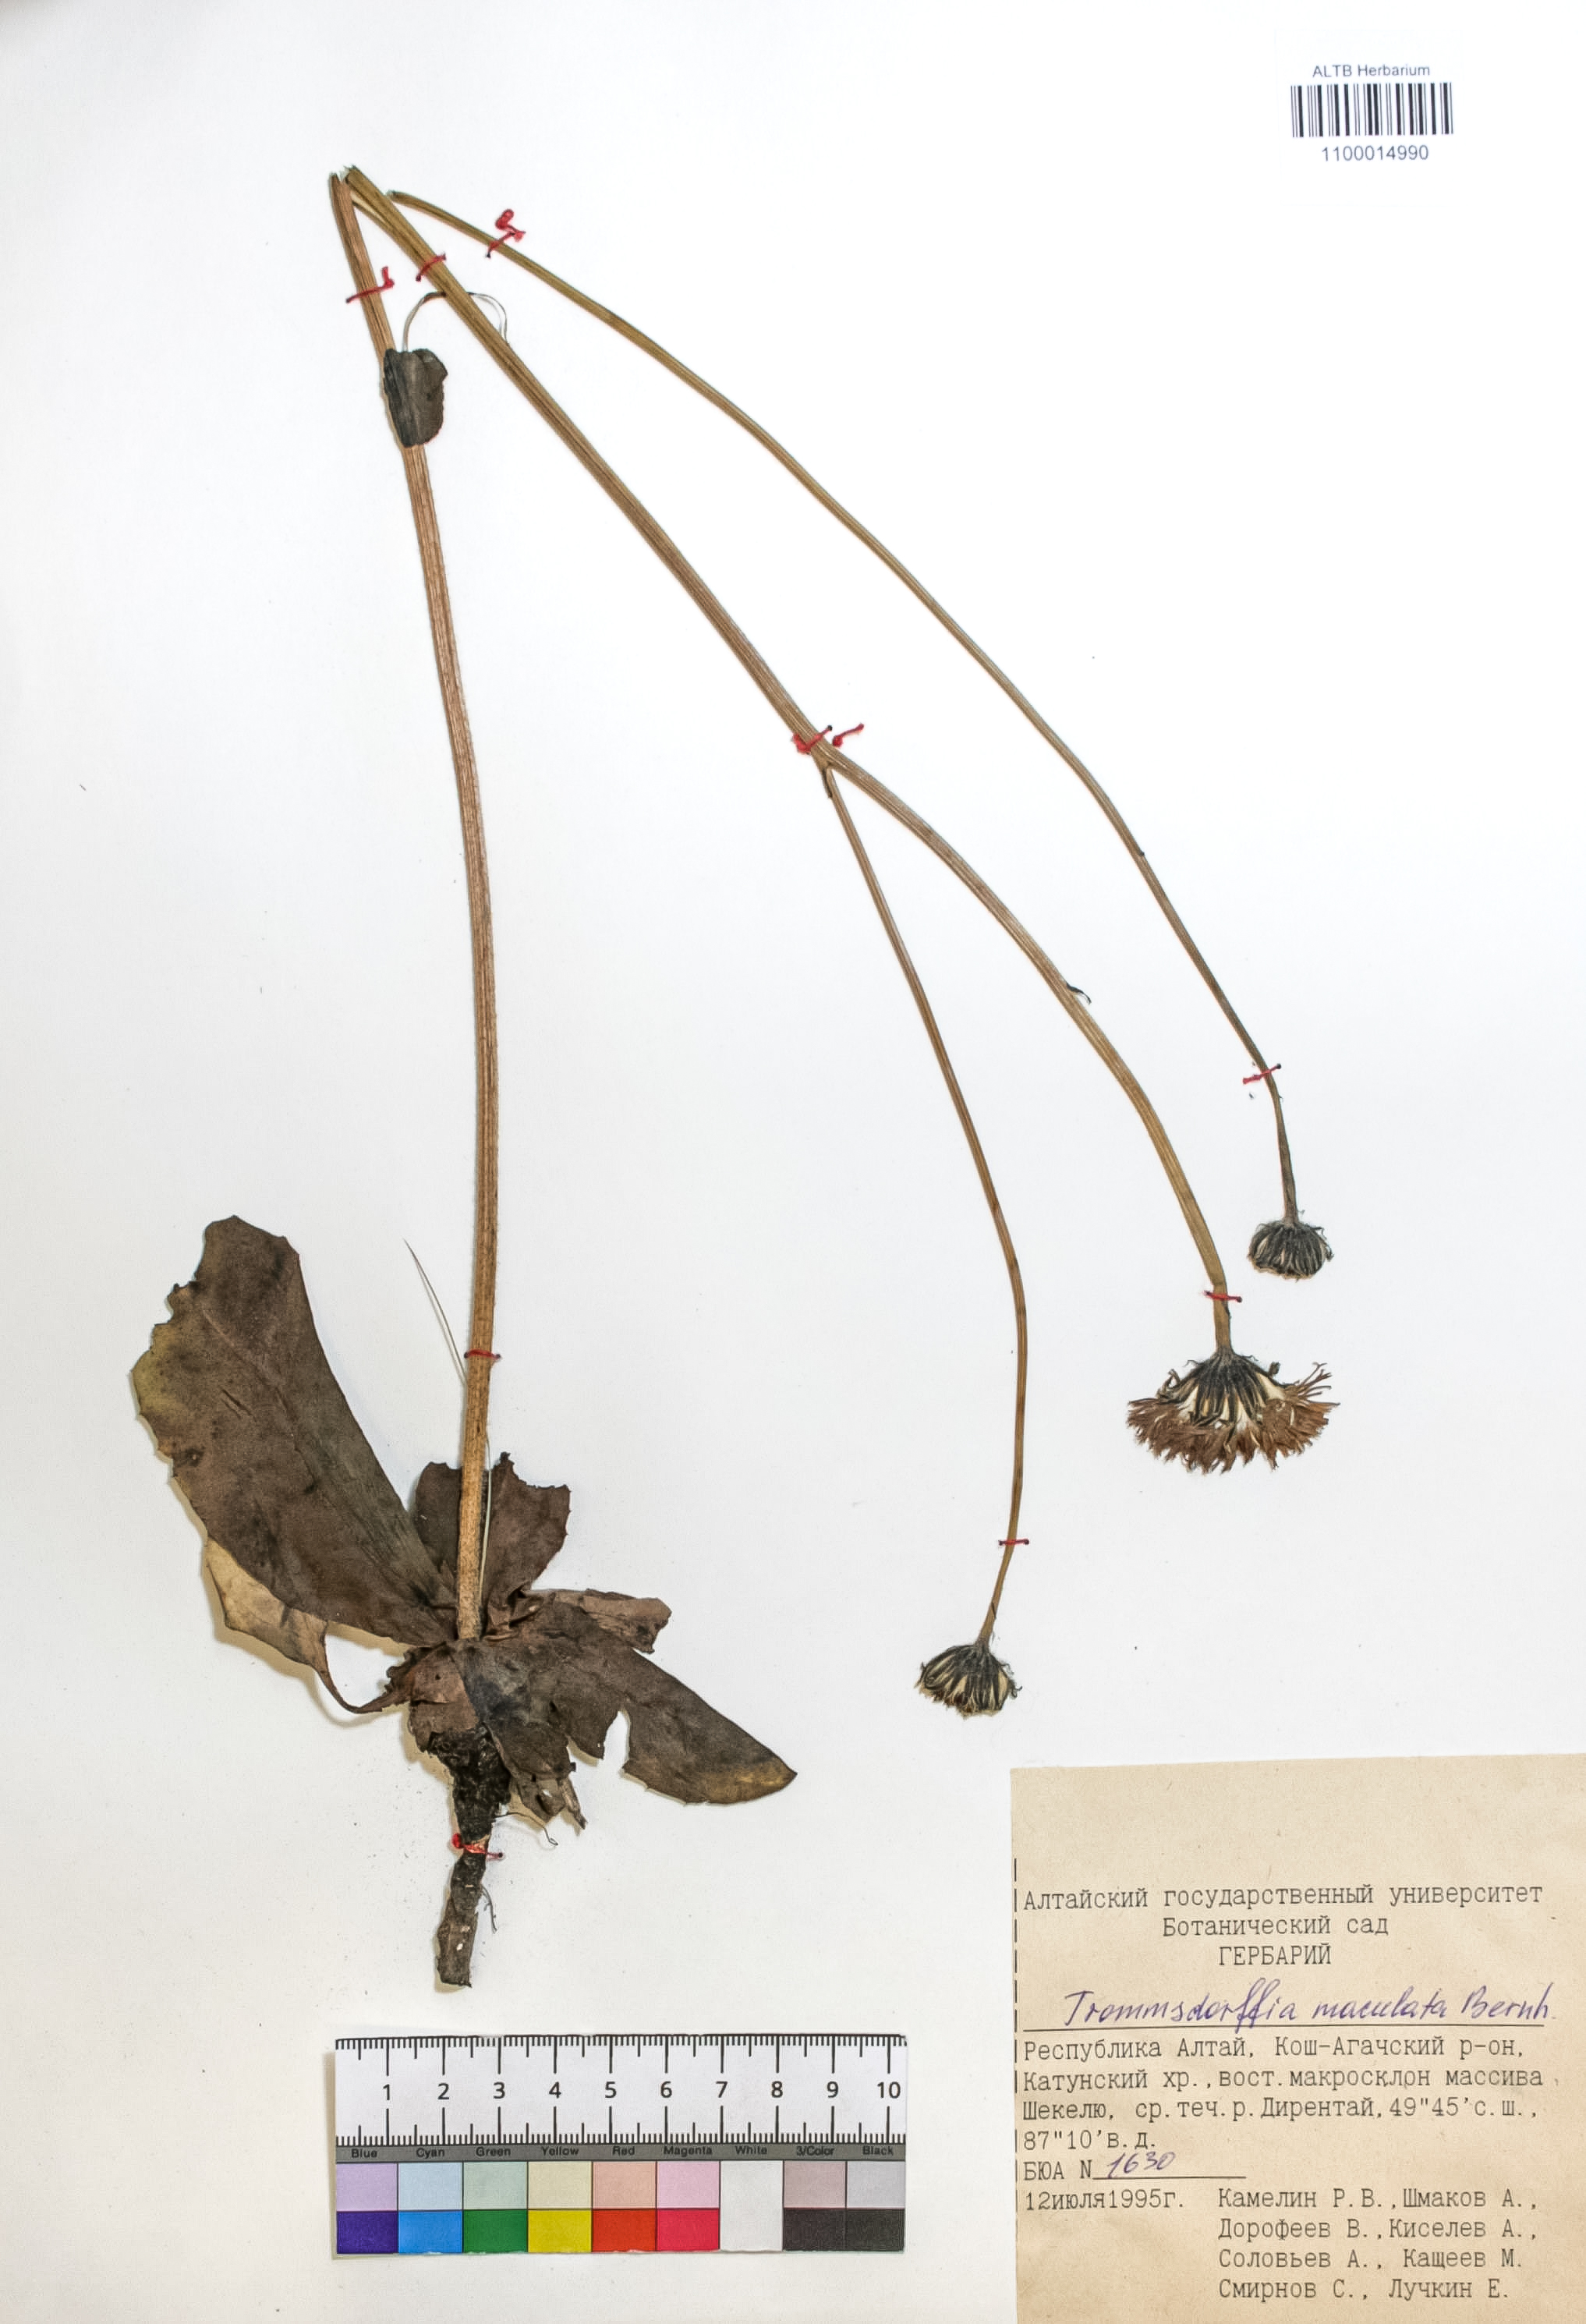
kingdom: Plantae
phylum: Tracheophyta
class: Magnoliopsida
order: Asterales
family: Asteraceae
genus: Trommsdorffia
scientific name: Trommsdorffia maculata
